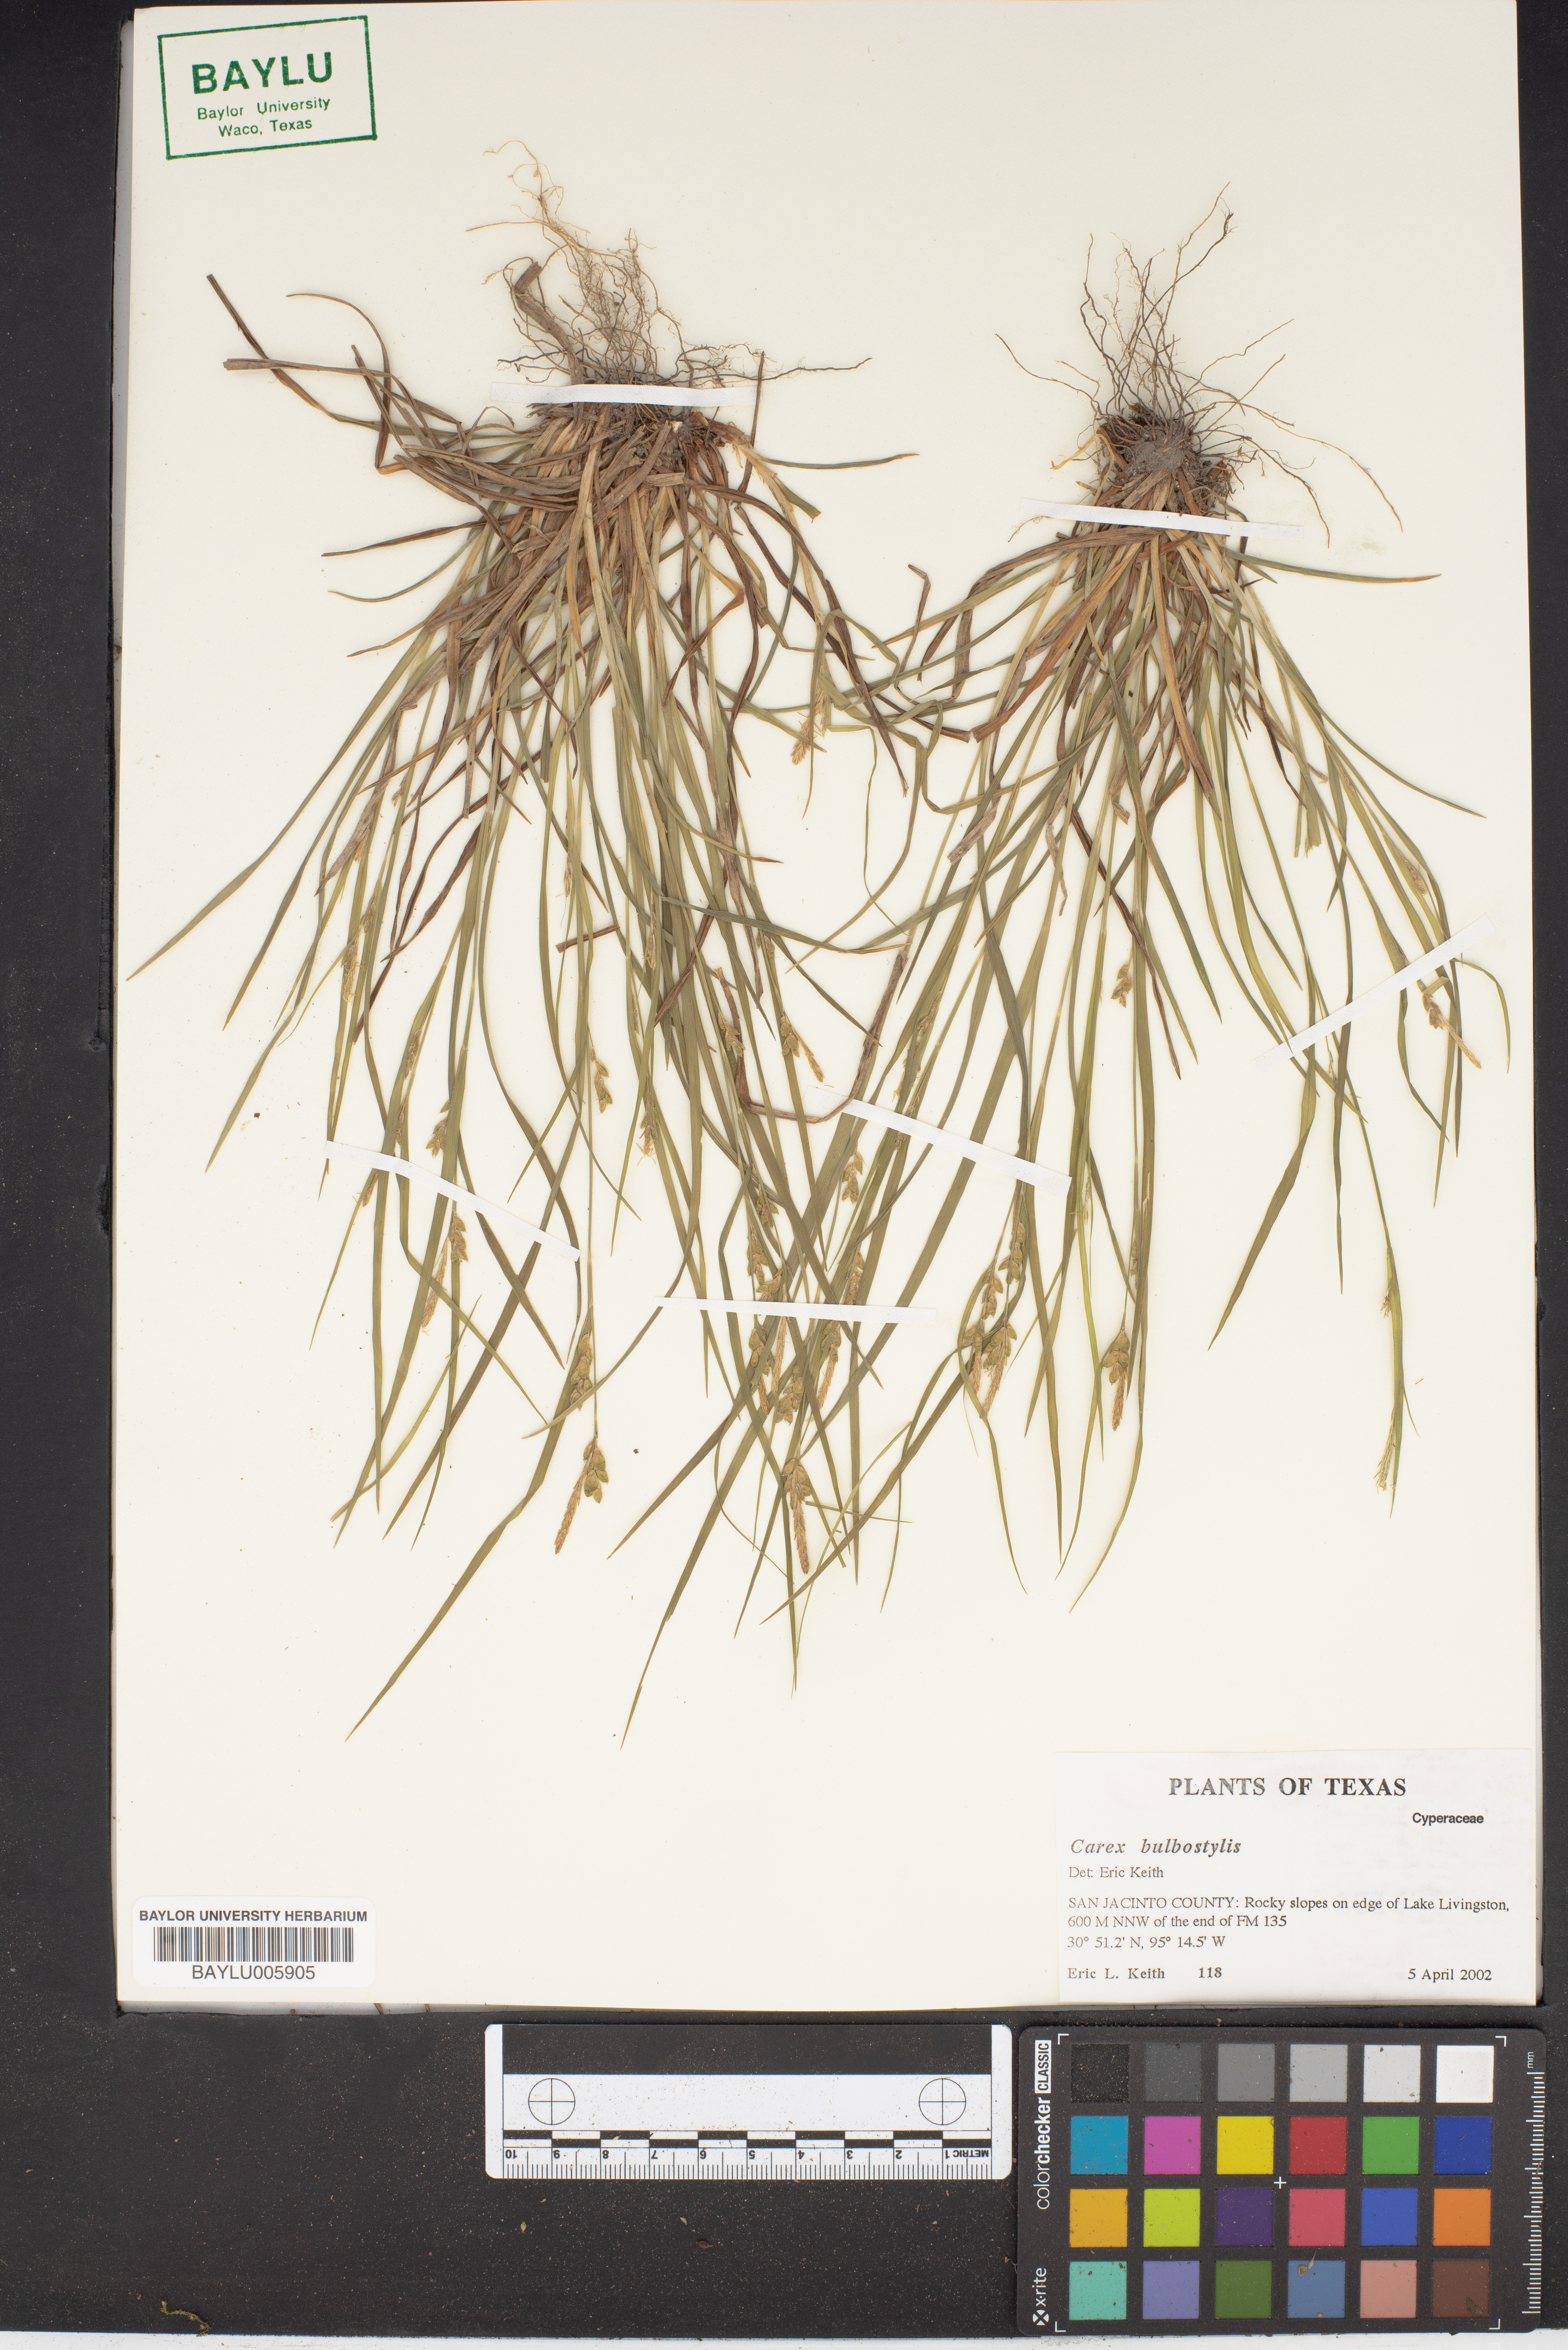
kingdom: Plantae
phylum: Tracheophyta
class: Liliopsida
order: Poales
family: Cyperaceae
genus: Carex
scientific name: Carex bulbostylis
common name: Eastern narrowleaf sedge
